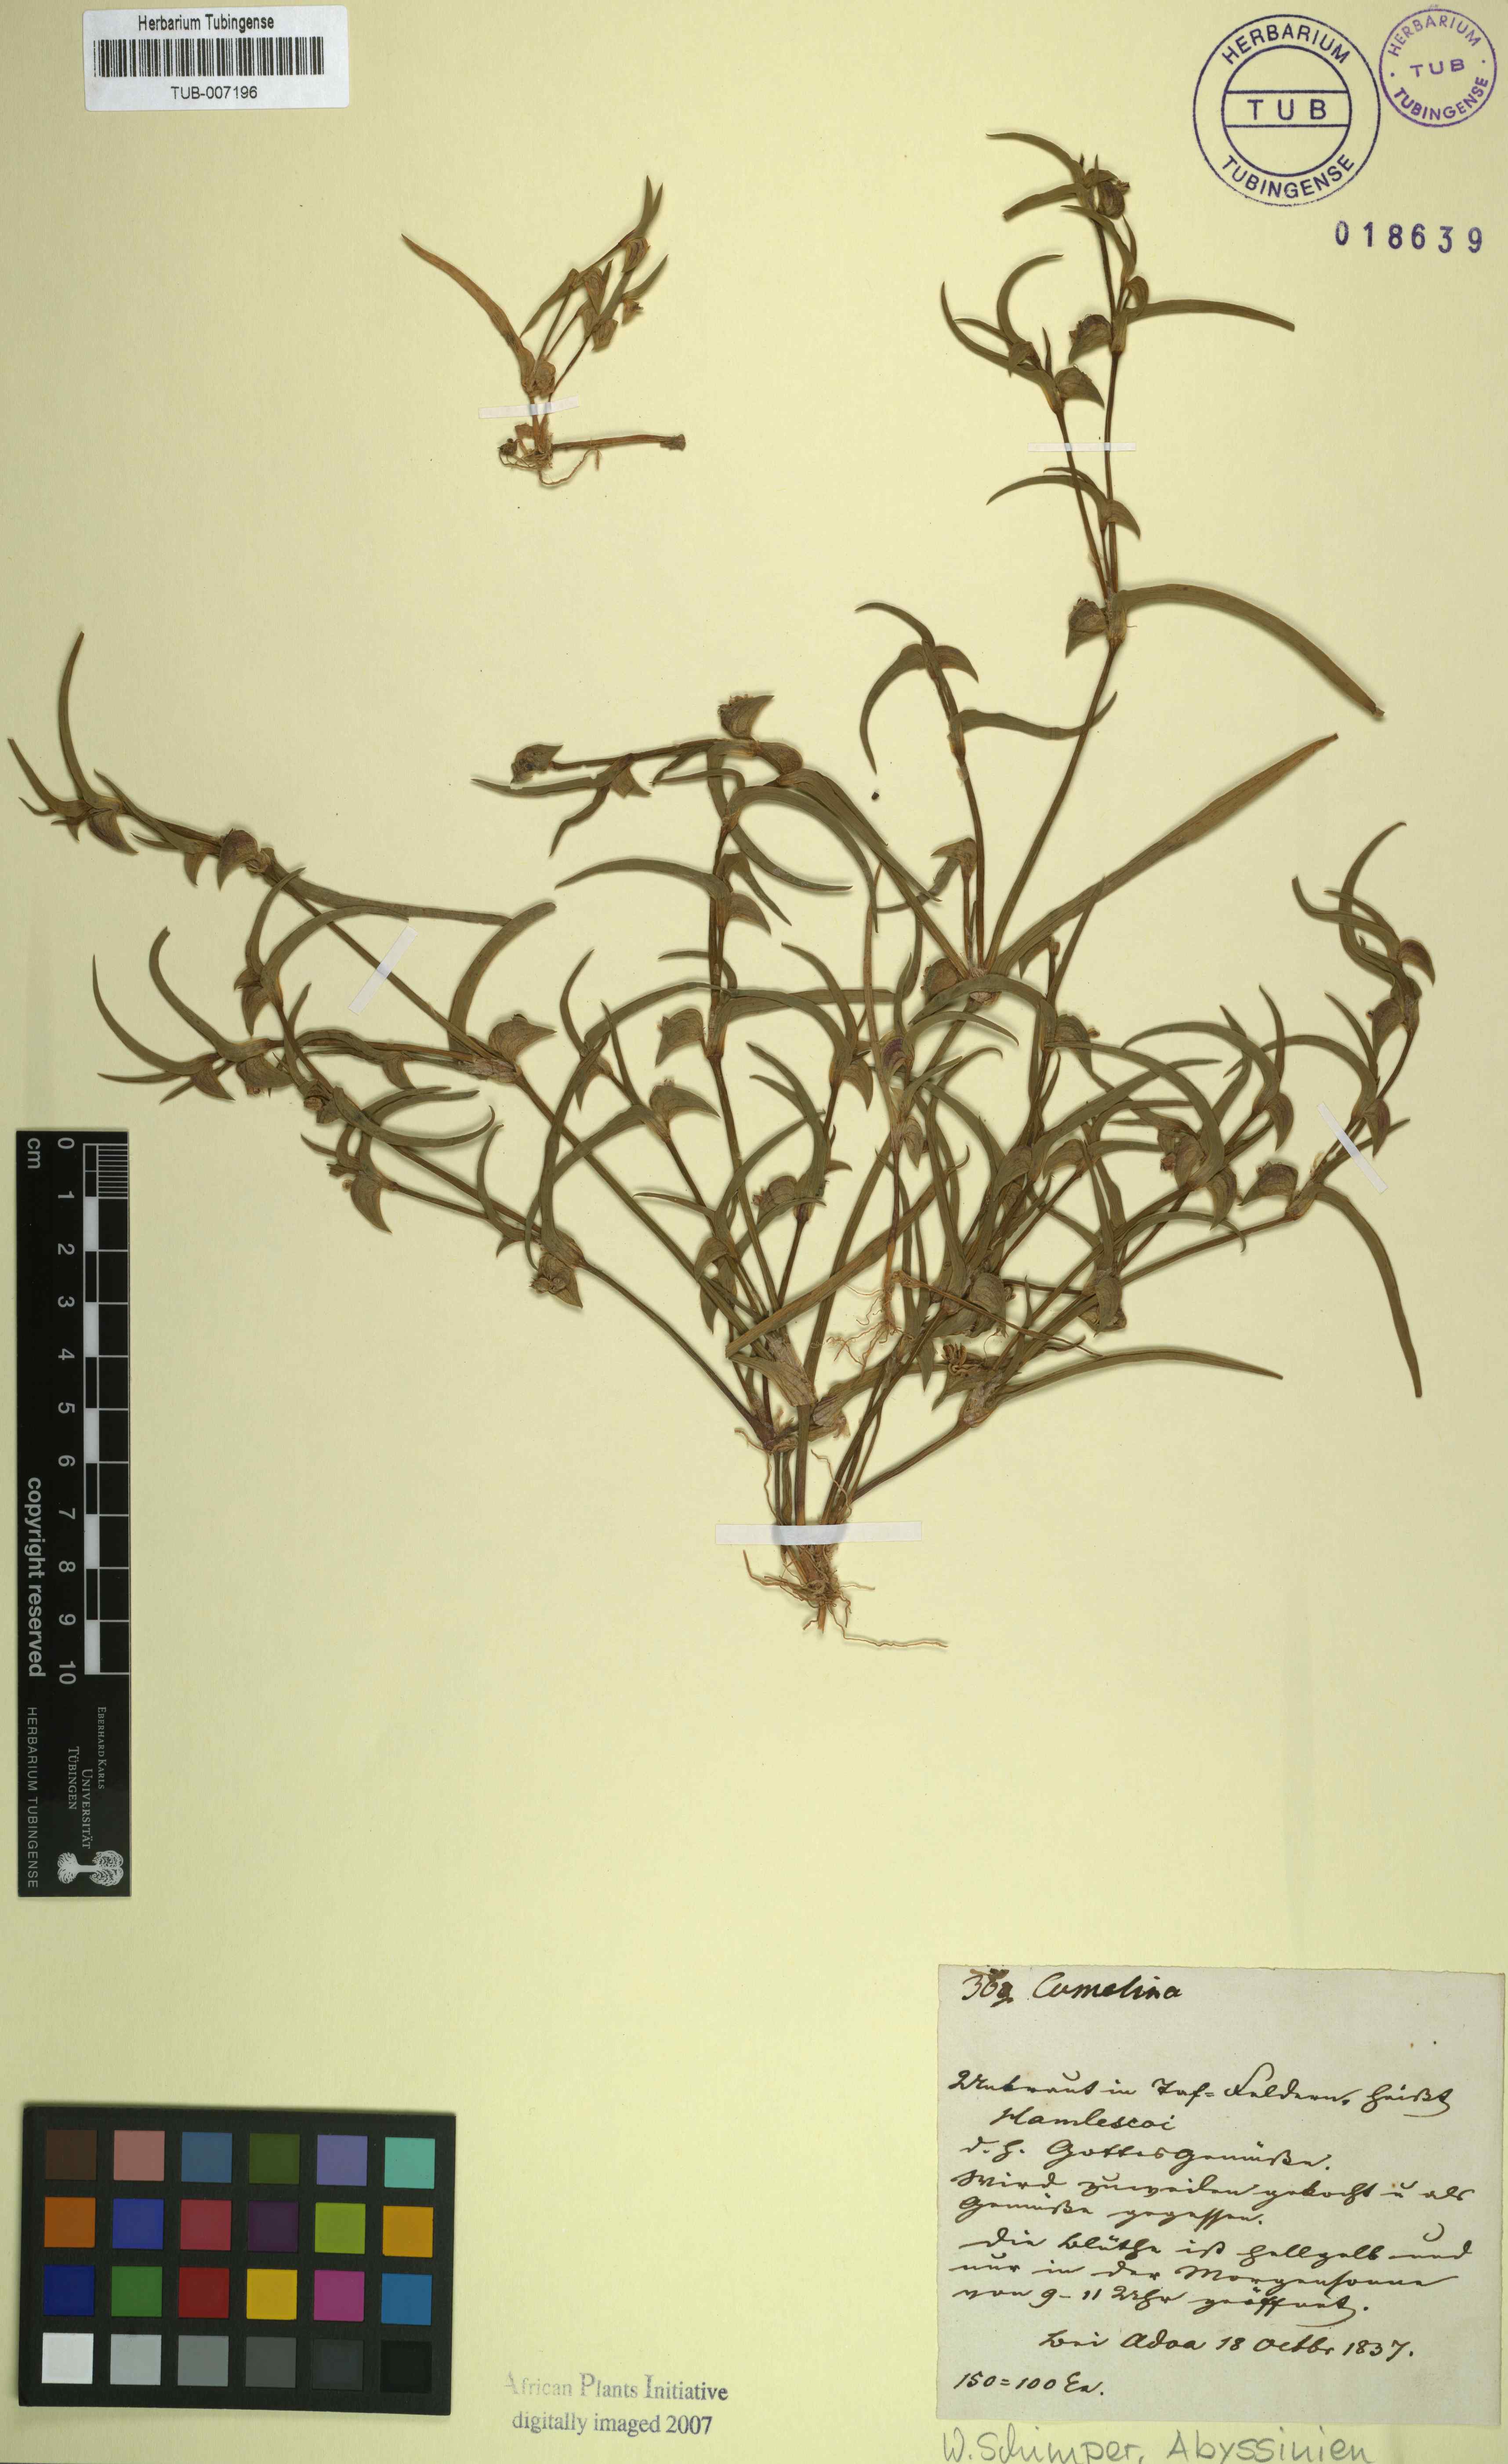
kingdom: Plantae
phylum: Tracheophyta
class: Liliopsida
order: Commelinales
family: Commelinaceae
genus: Commelina
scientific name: Commelina
